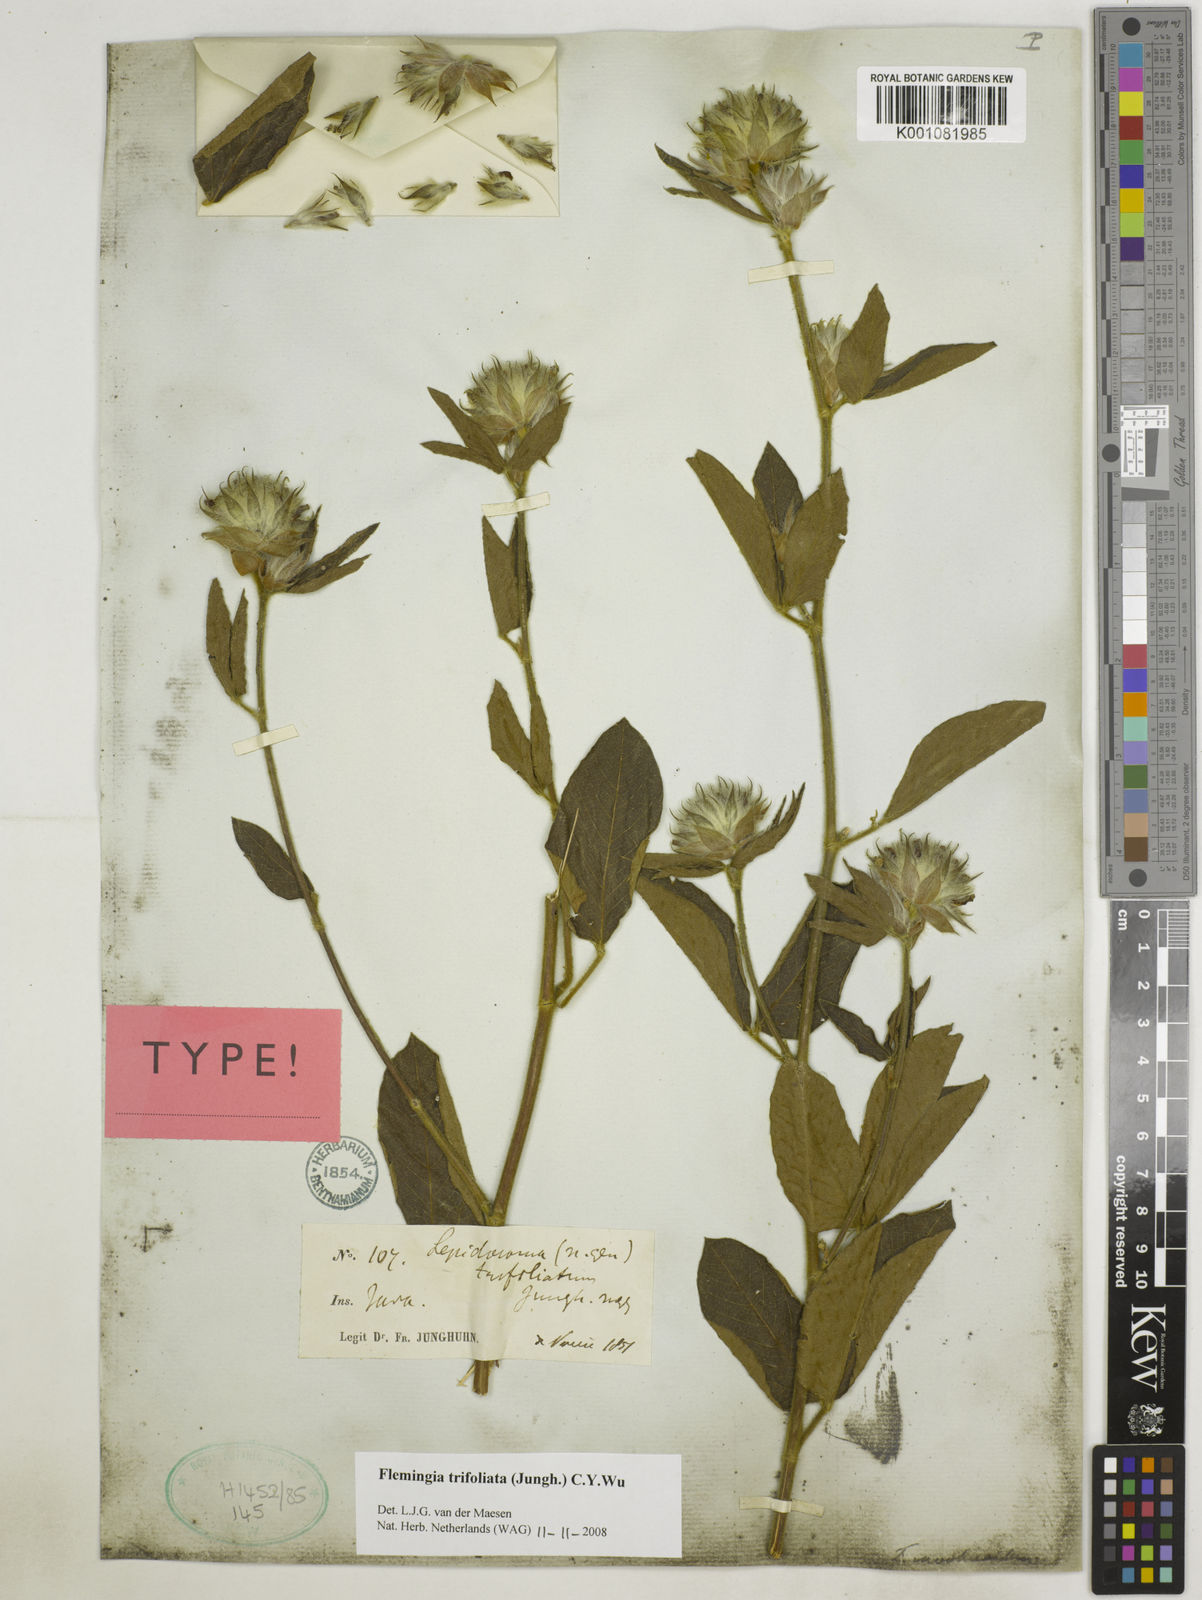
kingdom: Plantae
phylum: Tracheophyta
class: Magnoliopsida
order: Fabales
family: Fabaceae
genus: Flemingia
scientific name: Flemingia trifoliata
